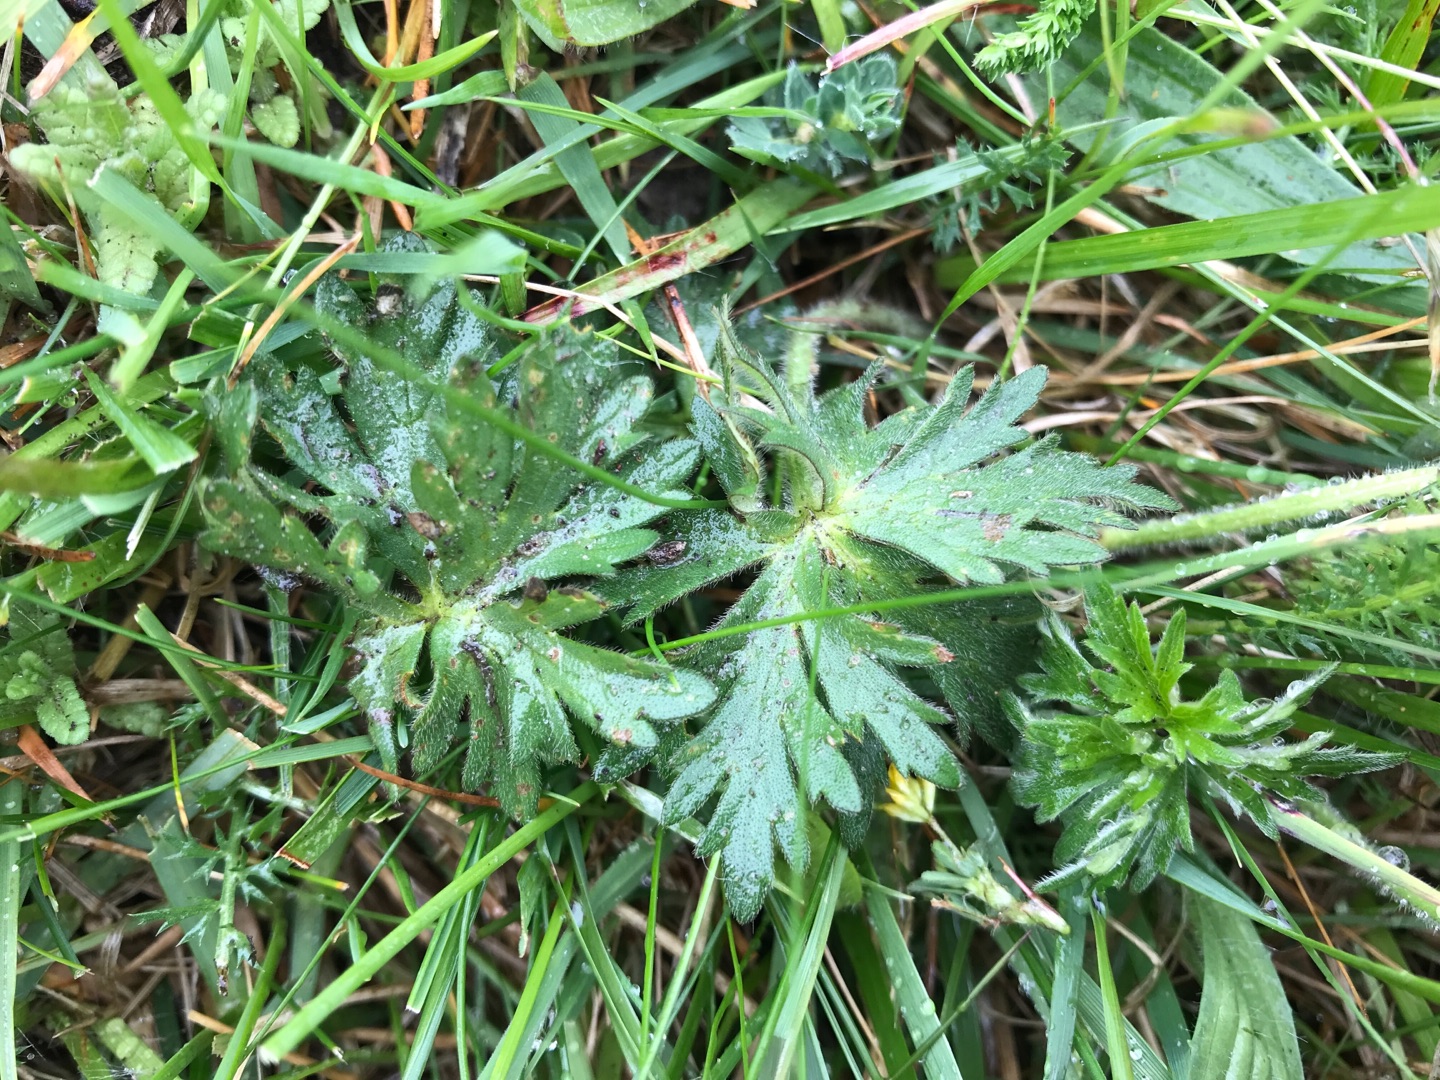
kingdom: Plantae
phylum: Tracheophyta
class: Magnoliopsida
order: Ranunculales
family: Ranunculaceae
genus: Ranunculus
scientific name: Ranunculus acris
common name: Bidende ranunkel
